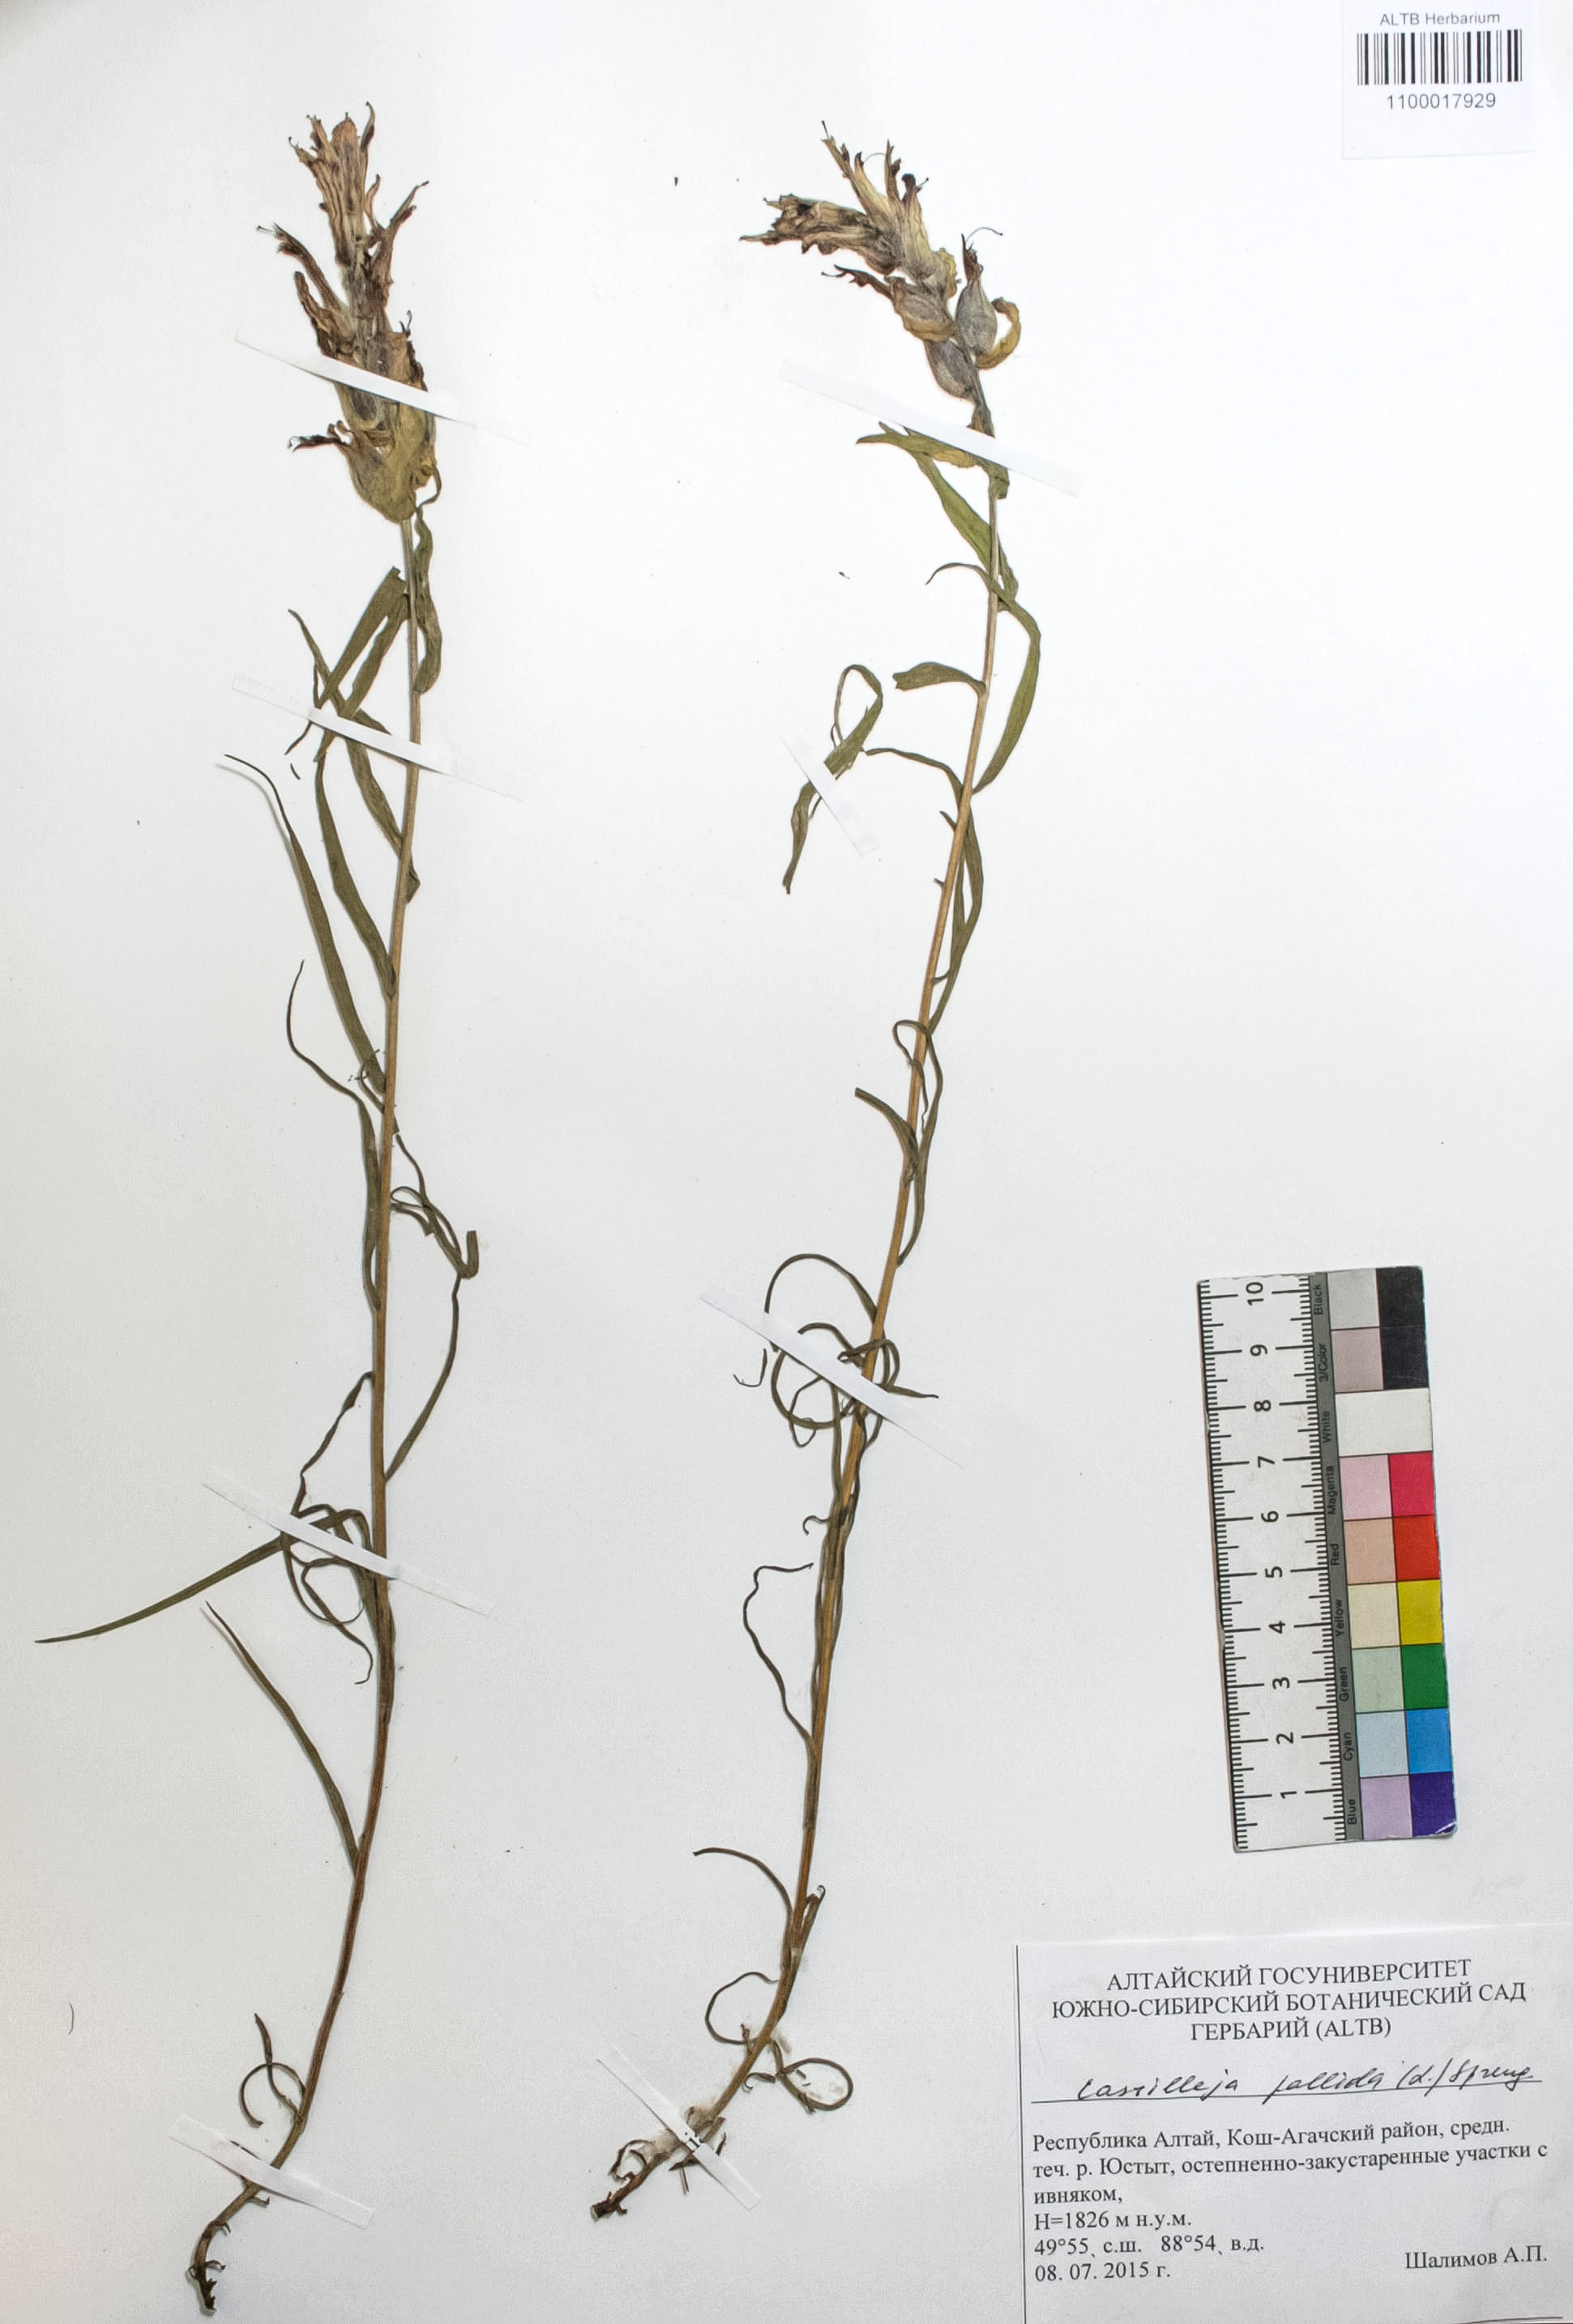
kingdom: Plantae
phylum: Tracheophyta
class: Magnoliopsida
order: Lamiales
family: Orobanchaceae
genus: Castilleja
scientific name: Castilleja pallida
